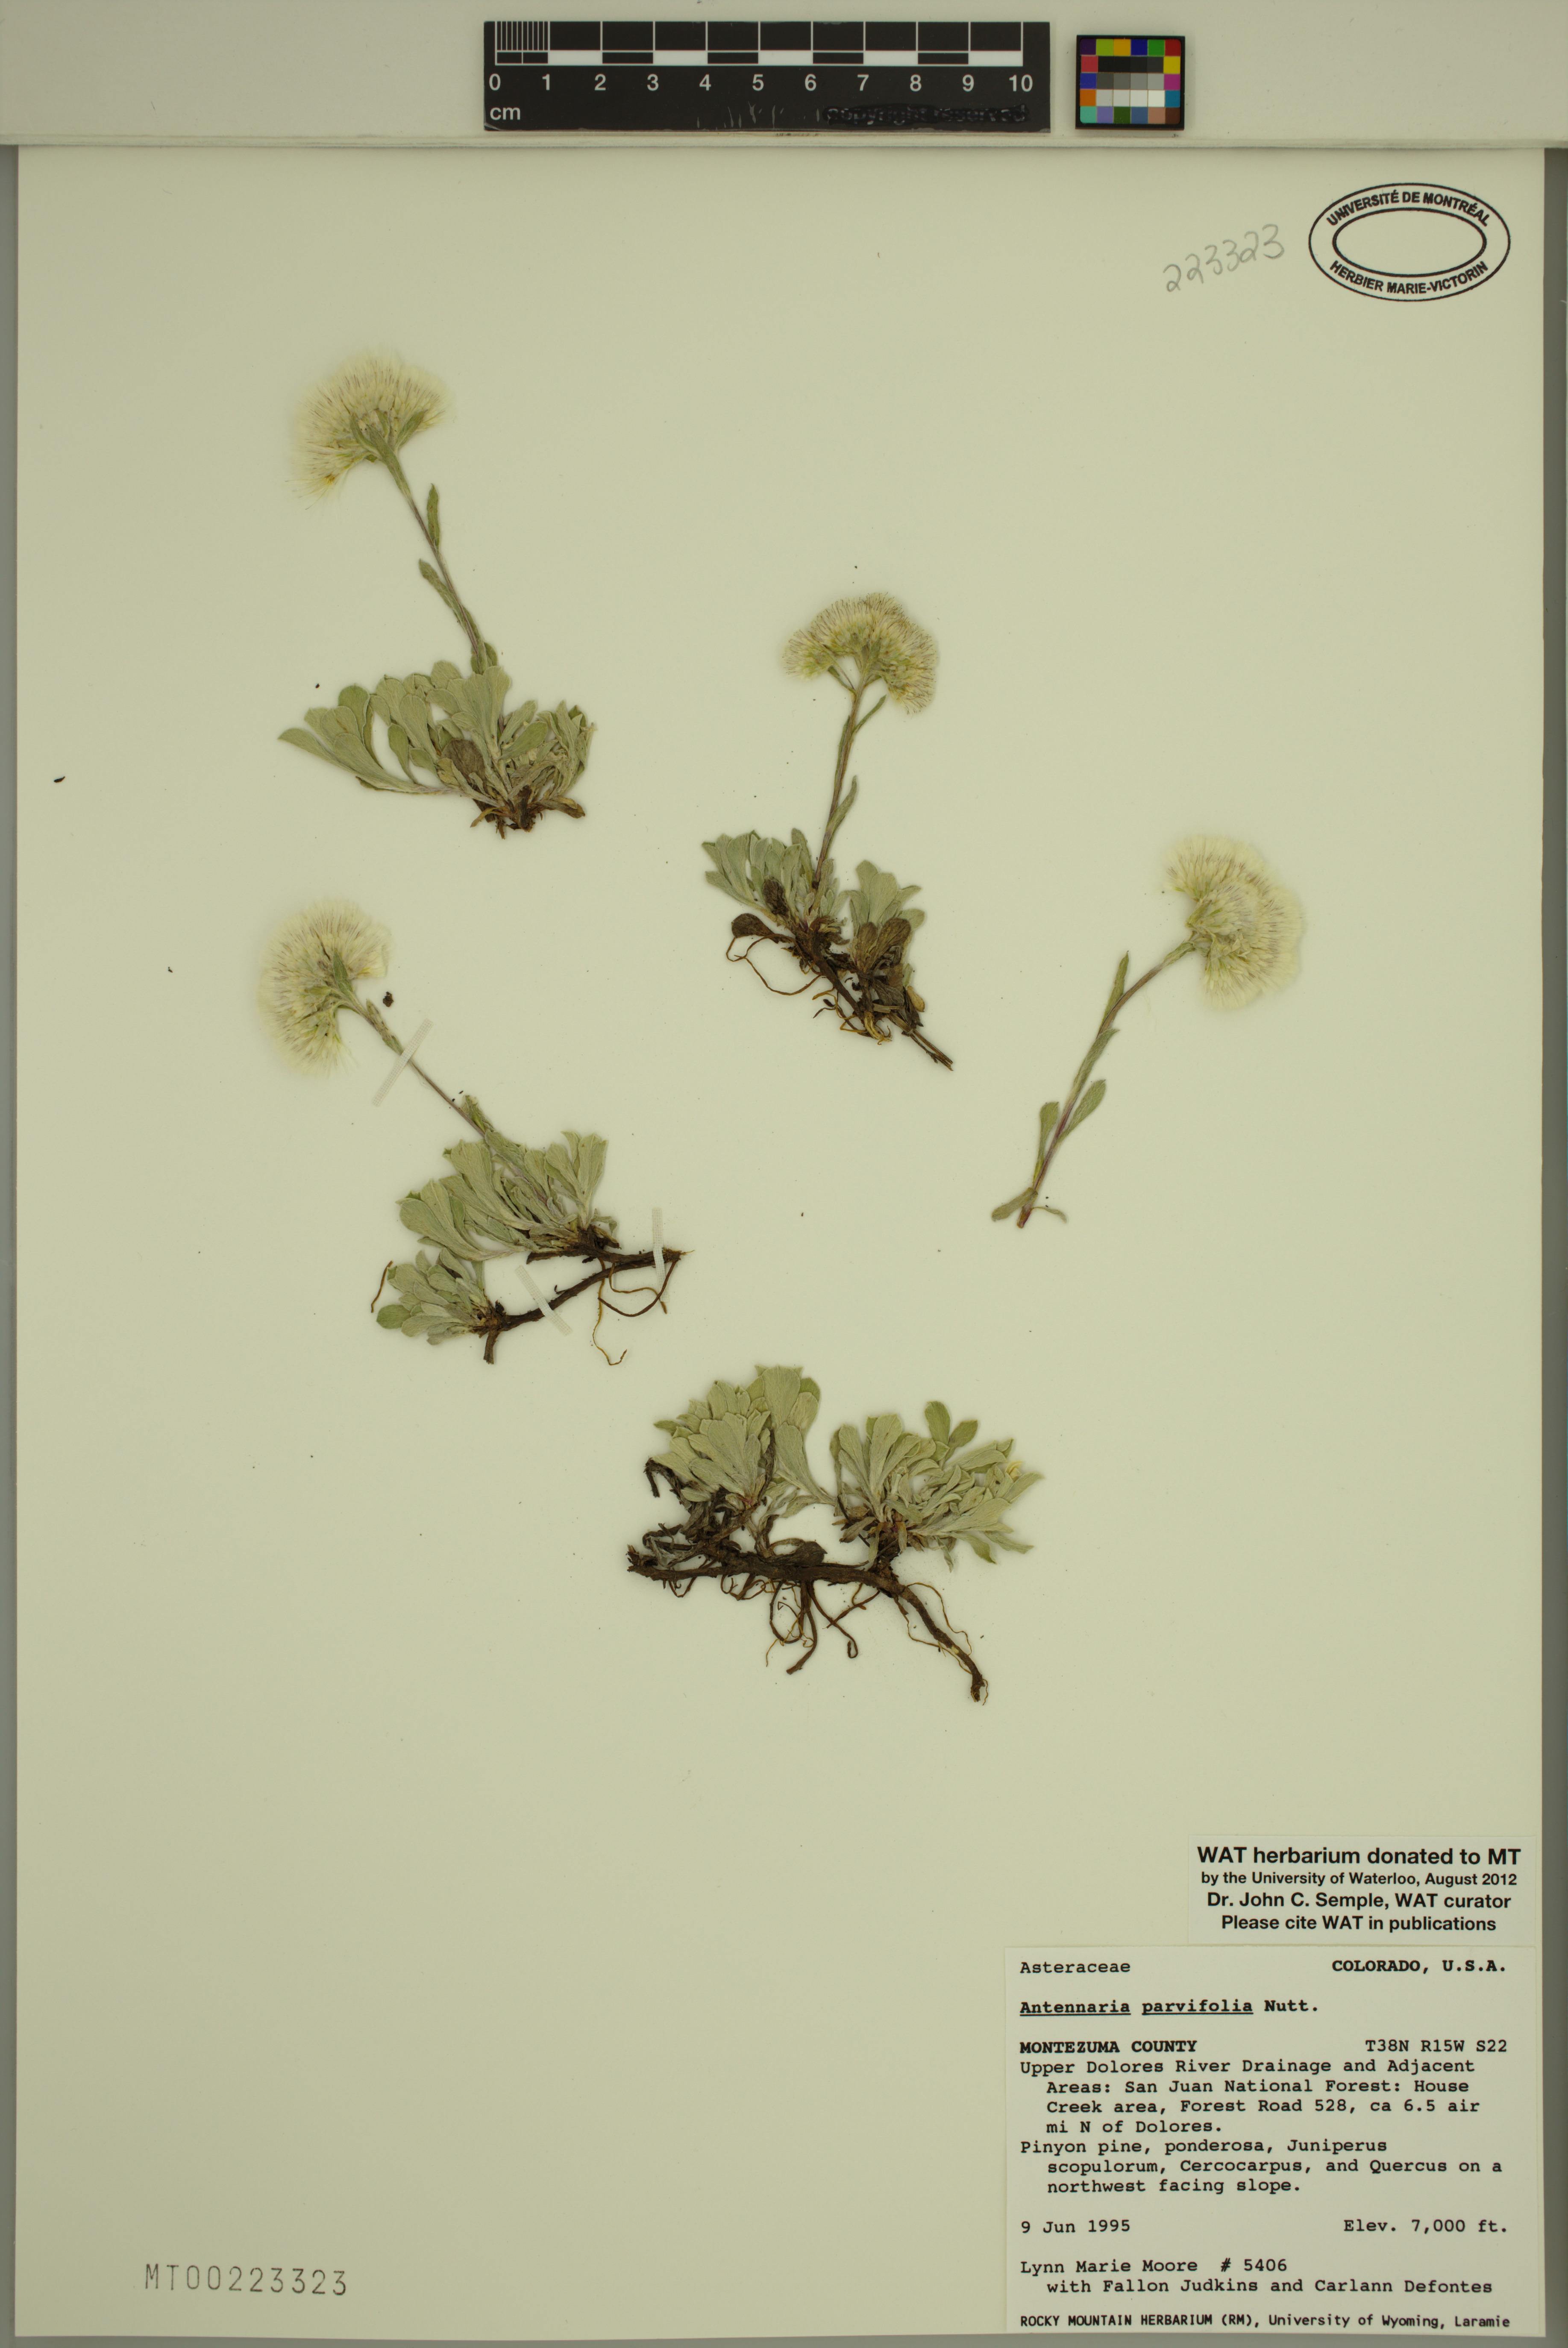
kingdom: Plantae
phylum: Tracheophyta
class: Magnoliopsida
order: Asterales
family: Asteraceae
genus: Antennaria
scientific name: Antennaria parvifolia
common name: Nuttall's pussytoes
